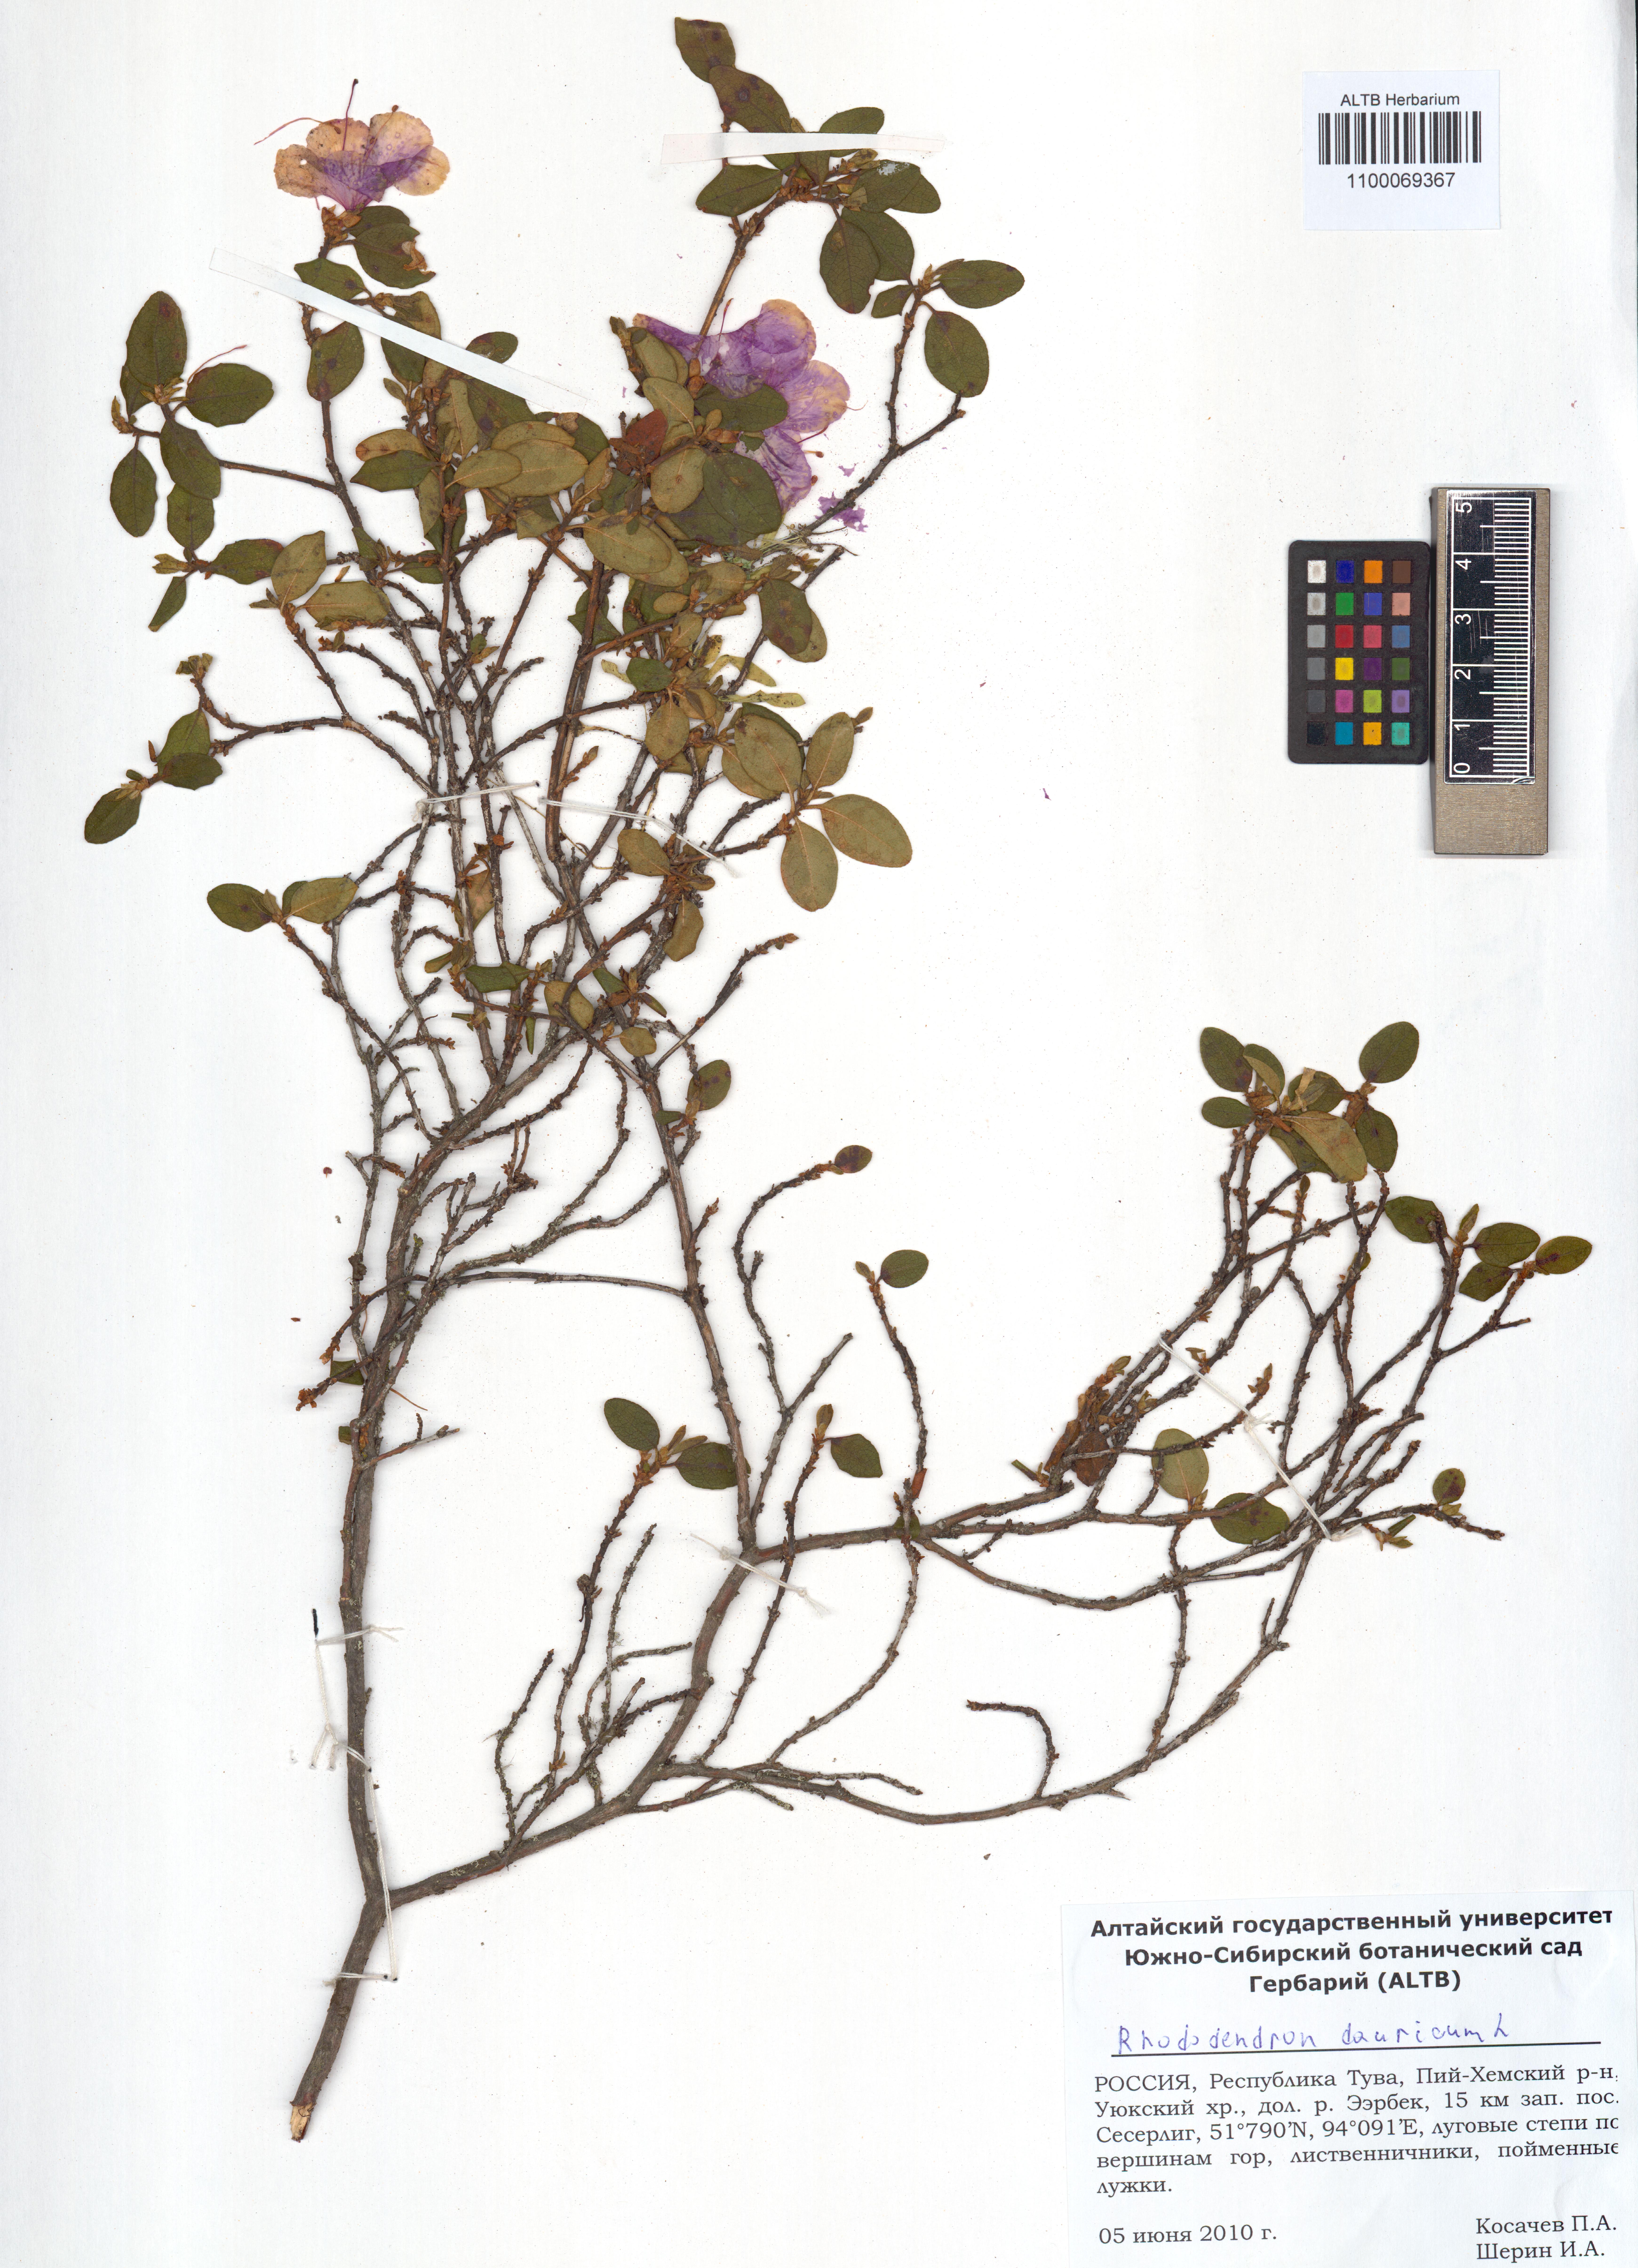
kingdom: Plantae
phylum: Tracheophyta
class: Magnoliopsida
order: Ericales
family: Ericaceae
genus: Rhododendron
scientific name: Rhododendron dauricum
